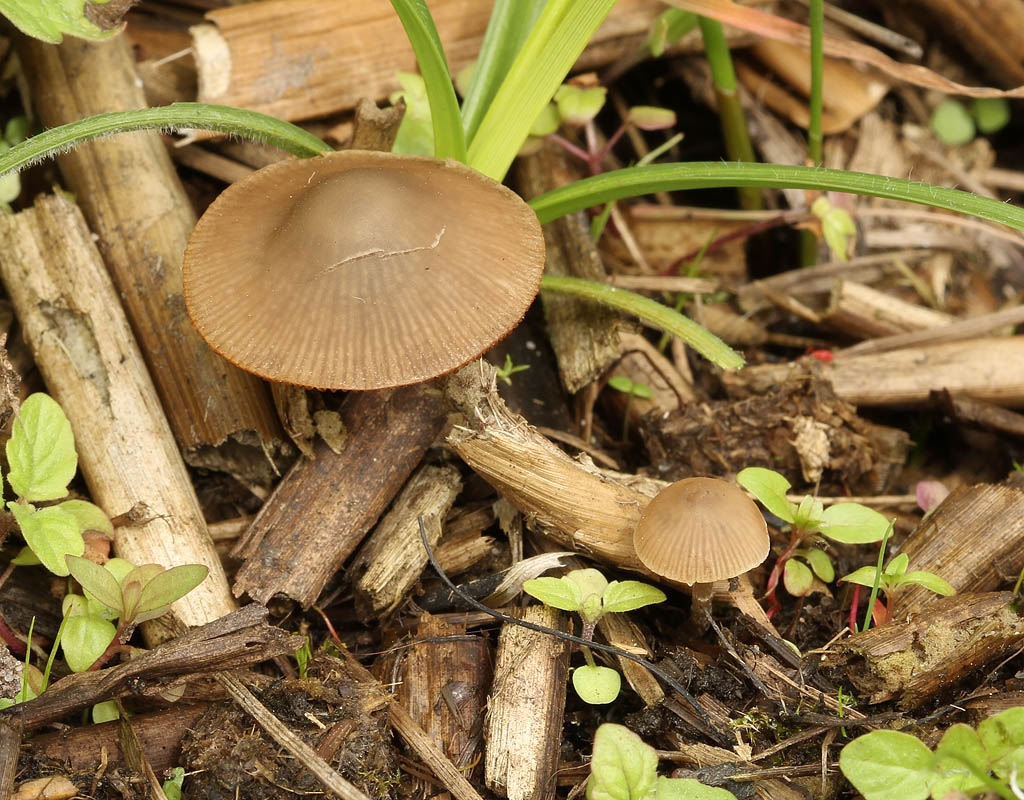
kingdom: Fungi
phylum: Basidiomycota
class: Agaricomycetes
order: Agaricales
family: Psathyrellaceae
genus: Psathyrella
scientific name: Psathyrella thujina
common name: staude-mørkhat
